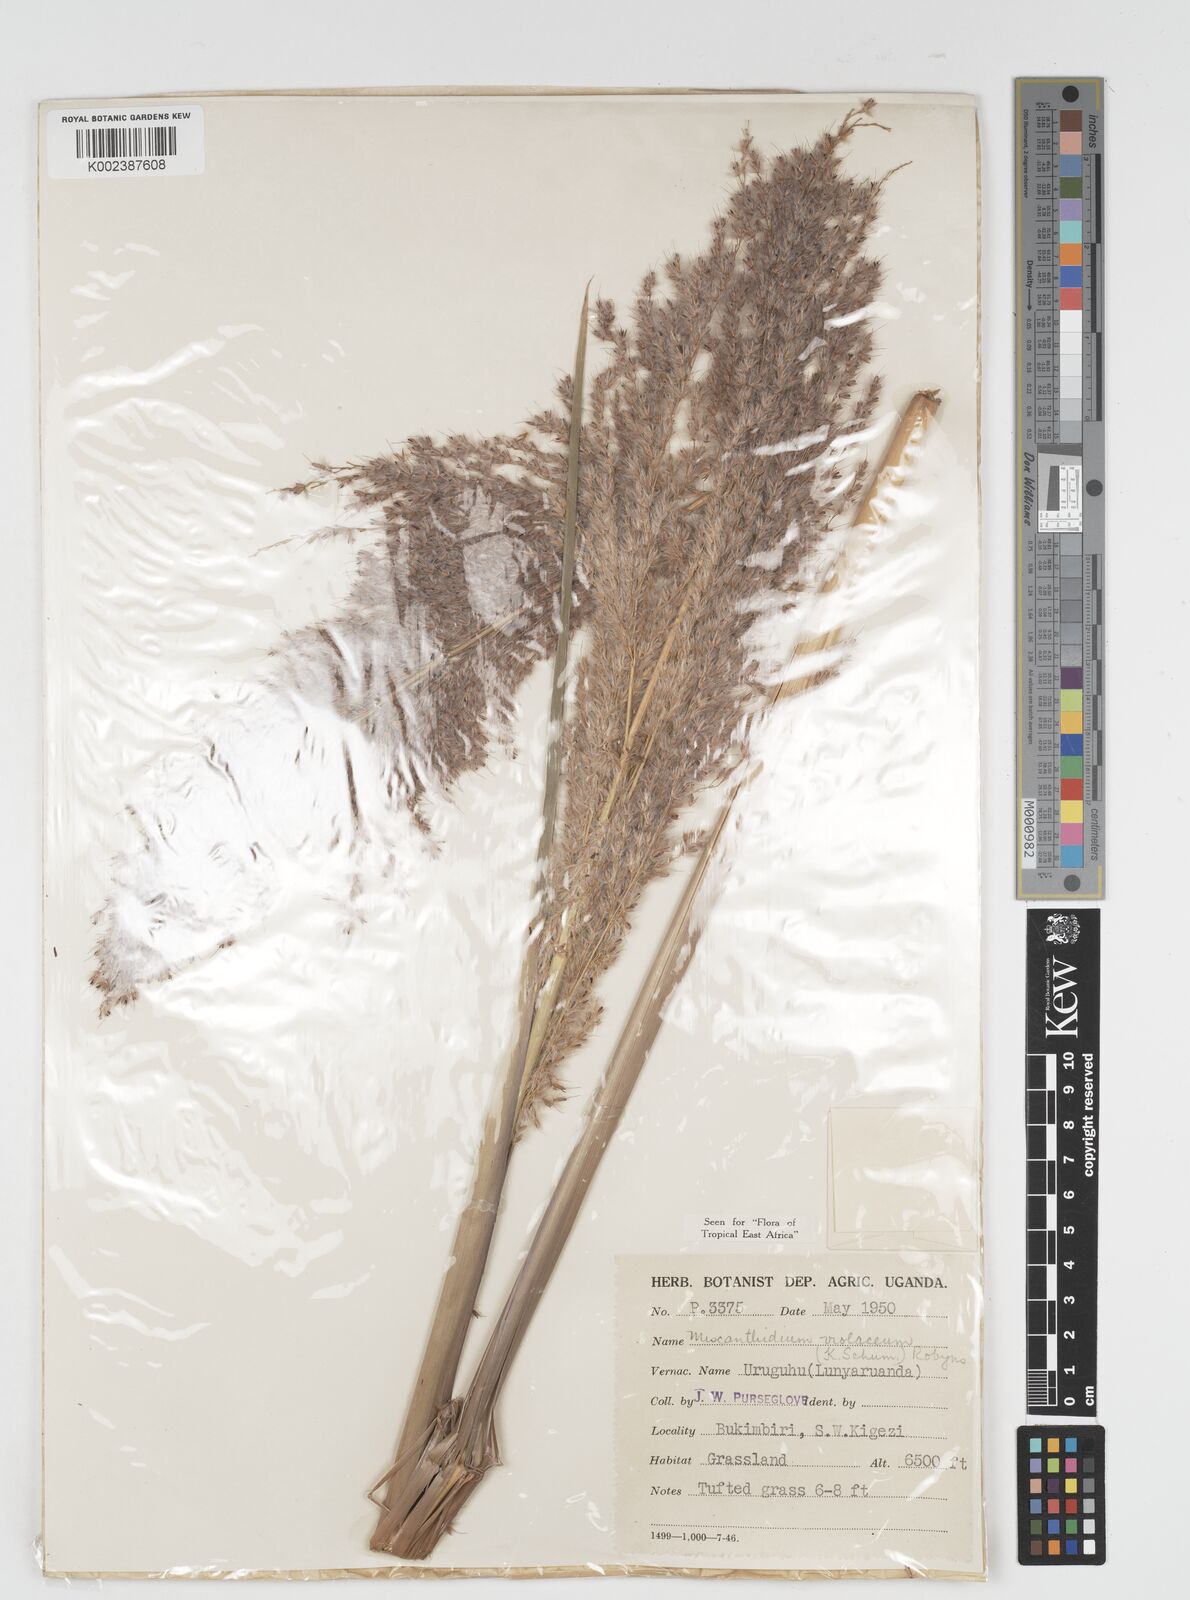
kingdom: Plantae
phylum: Tracheophyta
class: Liliopsida
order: Poales
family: Poaceae
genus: Miscanthidium
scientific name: Miscanthidium violaceum
